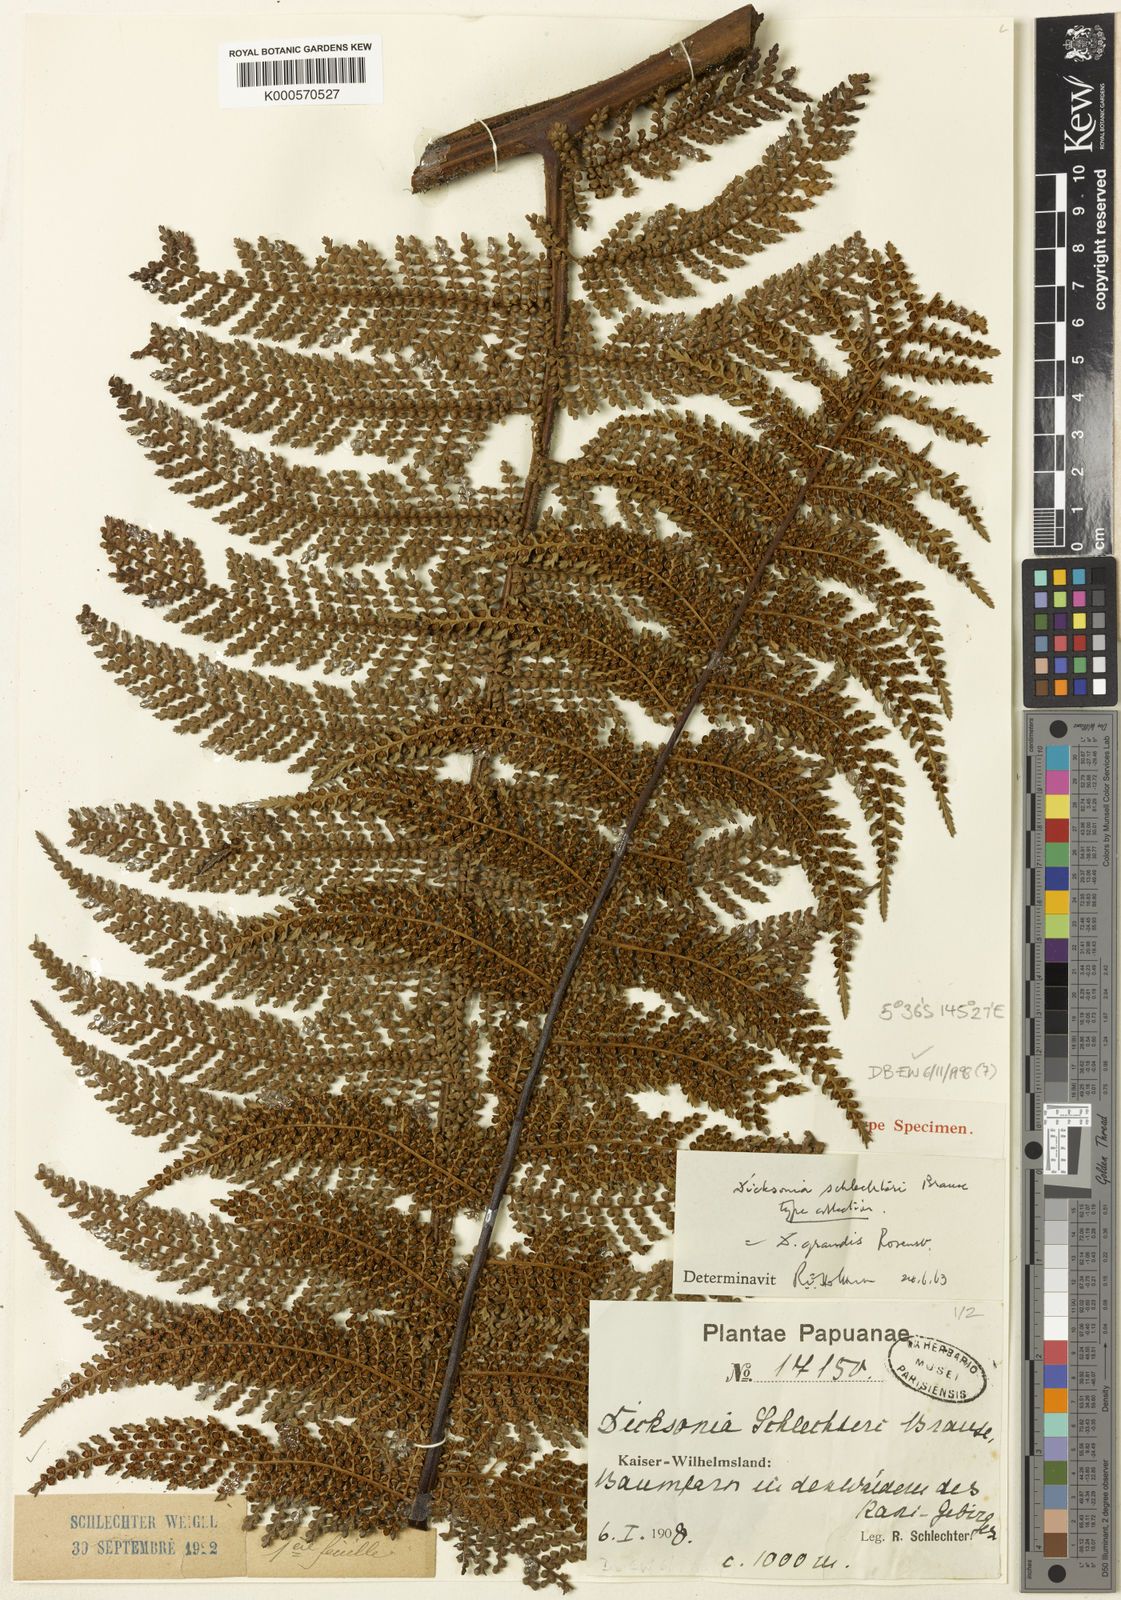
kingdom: Plantae
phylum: Tracheophyta
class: Polypodiopsida
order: Cyatheales
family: Dicksoniaceae
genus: Dicksonia
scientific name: Dicksonia grandis
